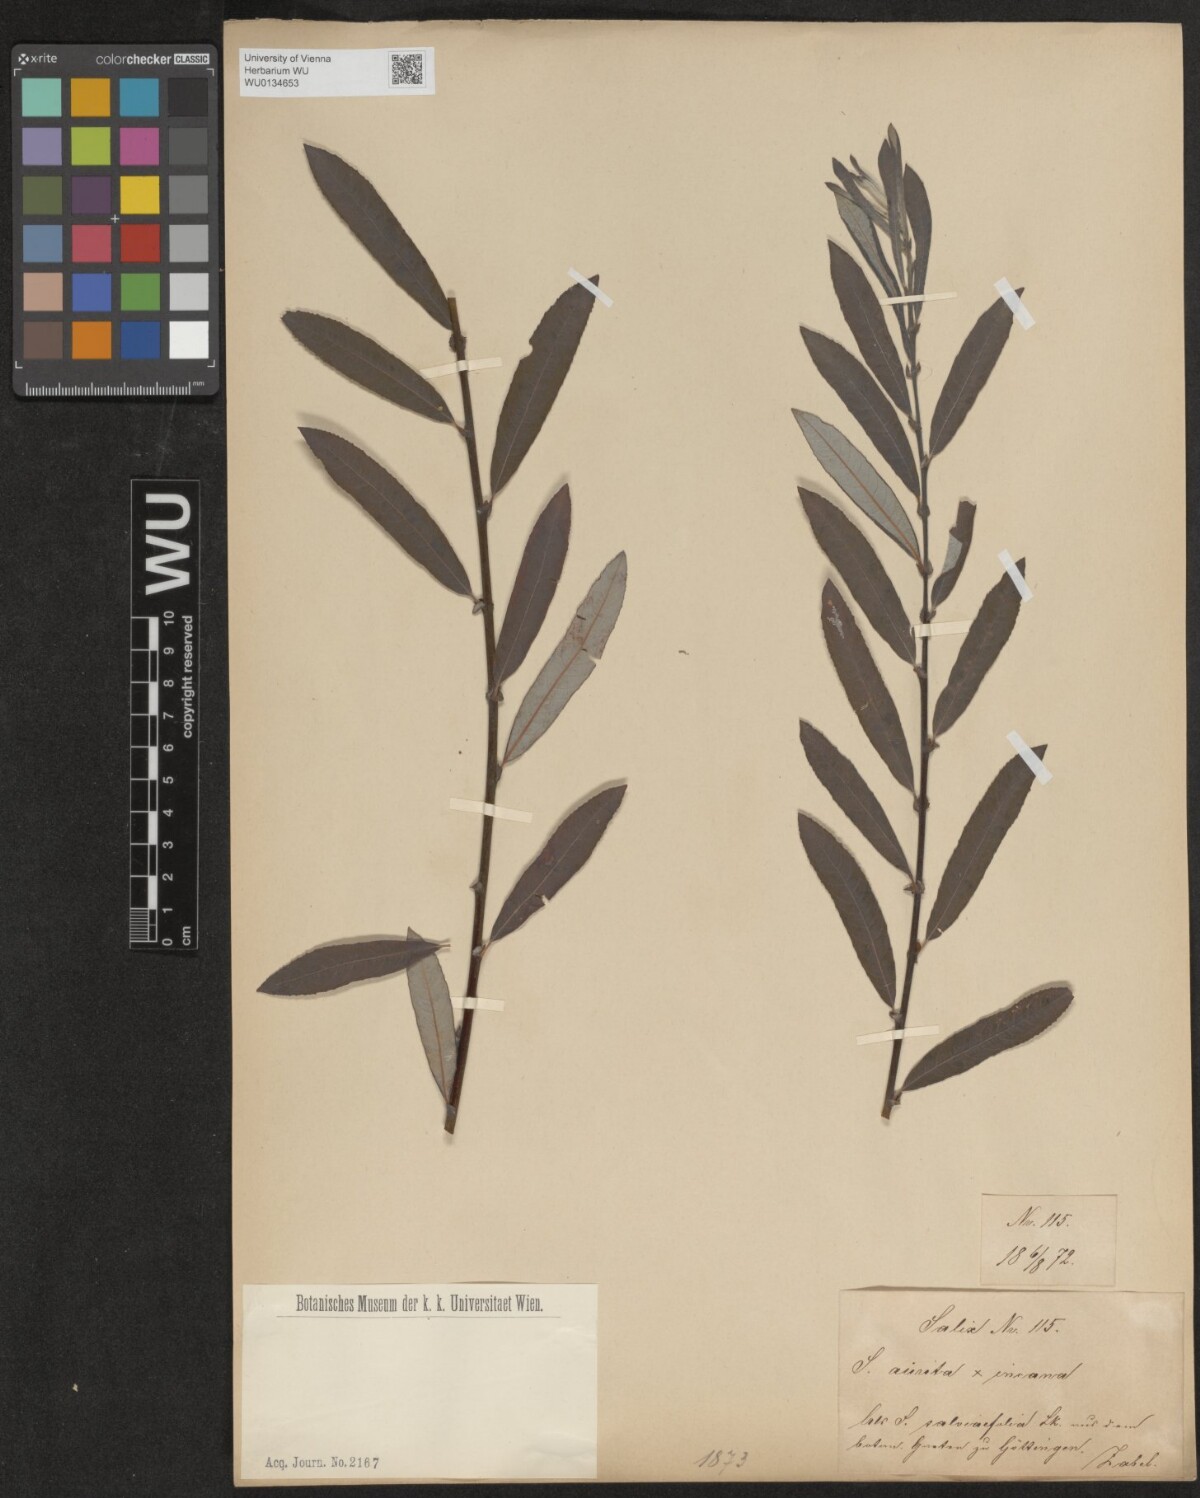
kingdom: Plantae
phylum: Tracheophyta
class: Magnoliopsida
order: Malpighiales
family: Salicaceae
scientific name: Salicaceae
